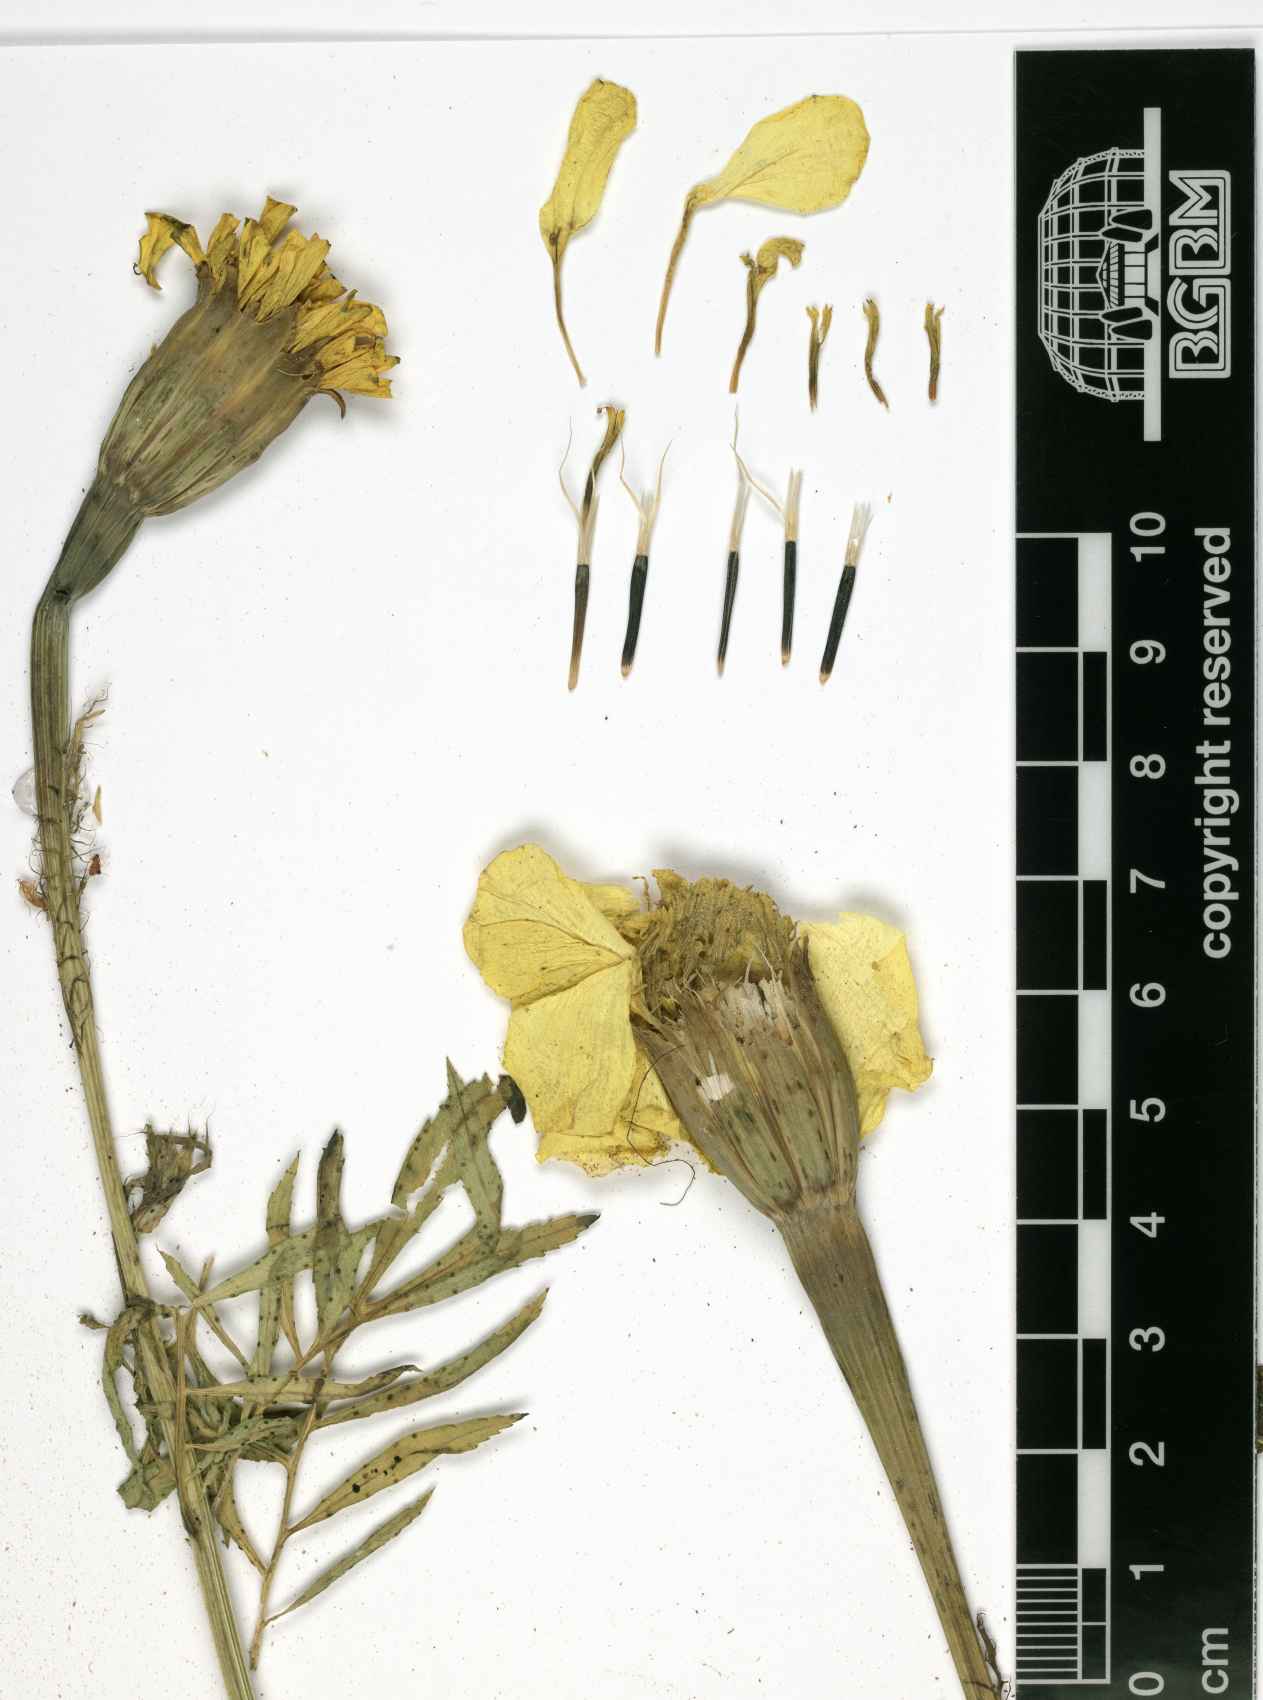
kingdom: Plantae
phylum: Tracheophyta
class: Magnoliopsida
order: Asterales
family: Asteraceae
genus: Tagetes
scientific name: Tagetes erecta
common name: African marigold
